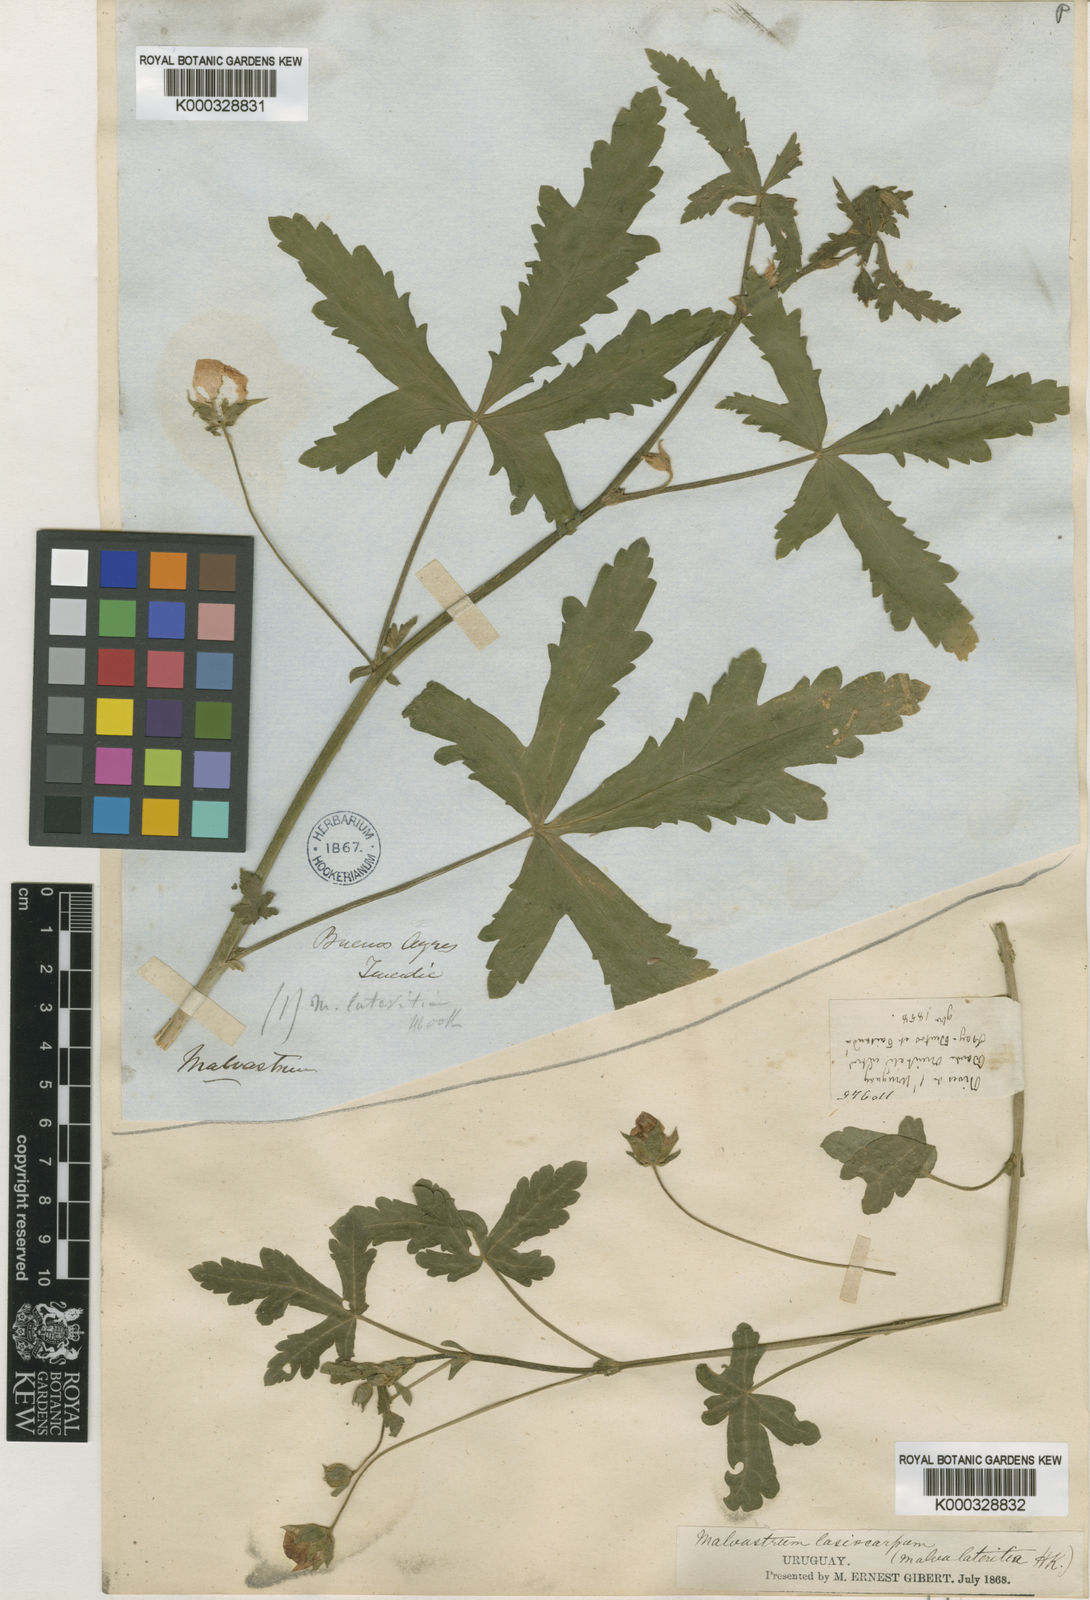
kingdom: Plantae
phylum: Tracheophyta
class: Magnoliopsida
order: Malvales
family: Malvaceae
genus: Modiolastrum
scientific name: Modiolastrum lateritium
